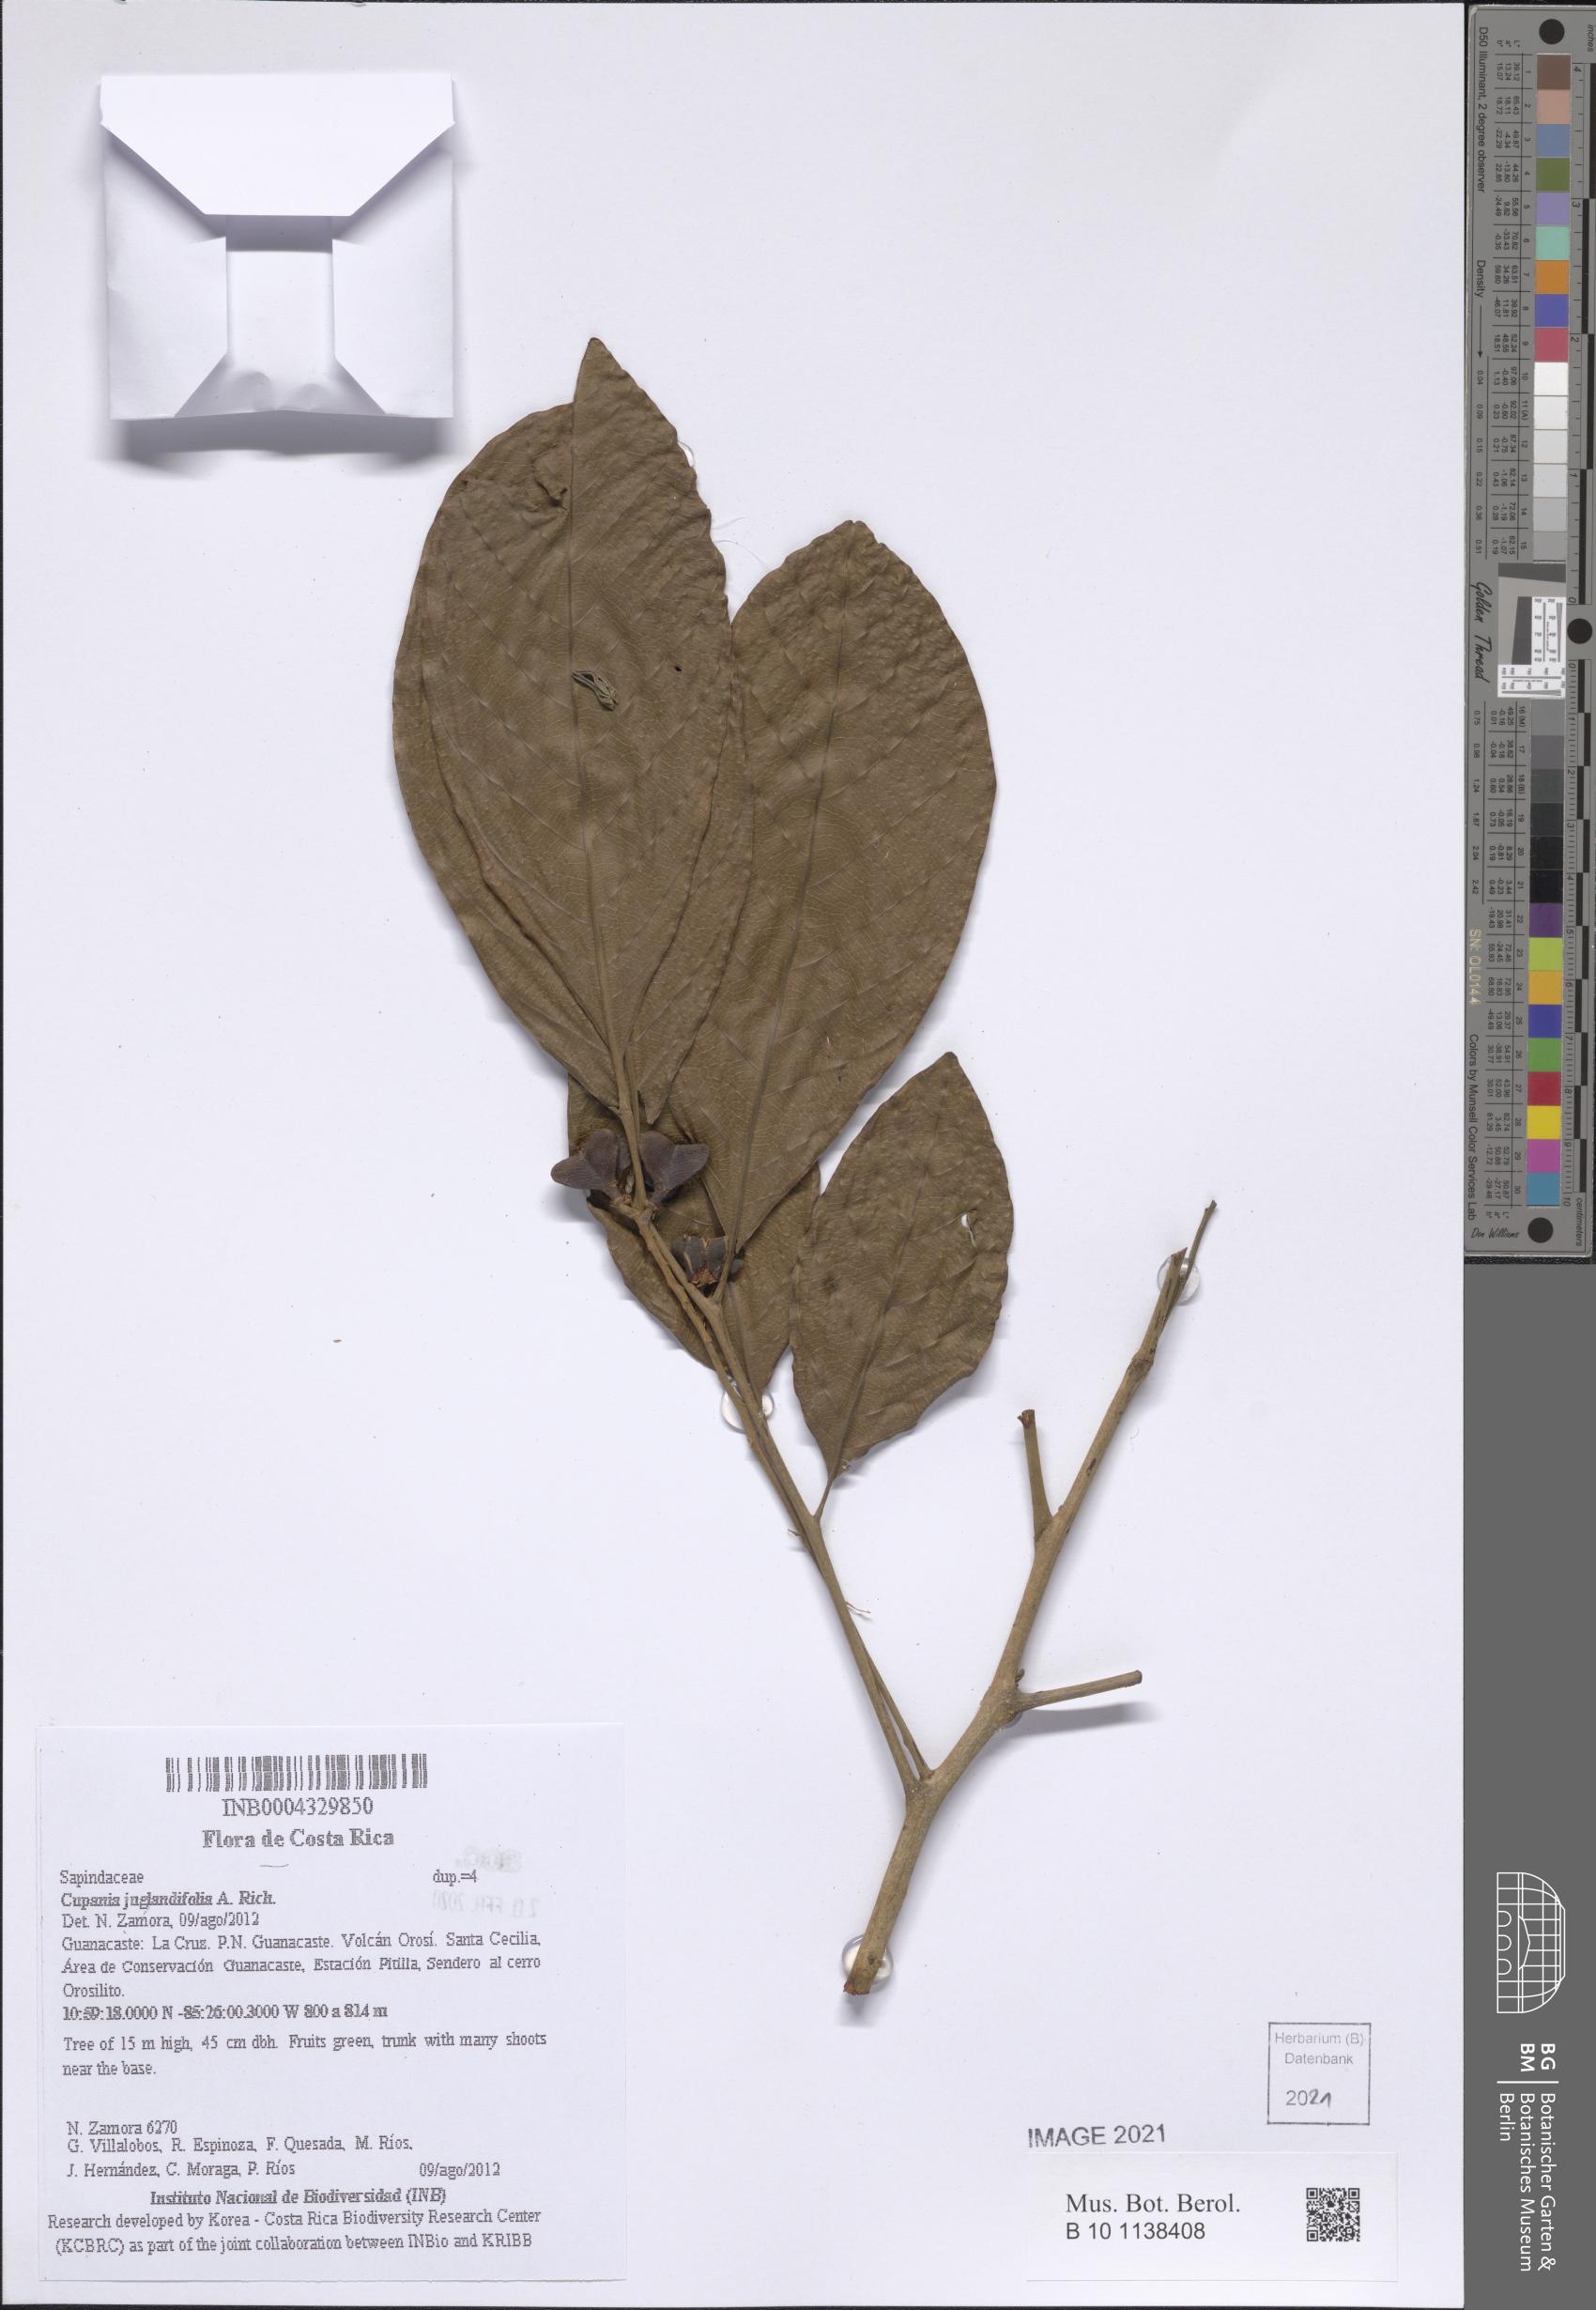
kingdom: Plantae
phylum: Tracheophyta
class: Magnoliopsida
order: Sapindales
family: Sapindaceae
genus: Cupania
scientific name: Cupania juglandifolia
